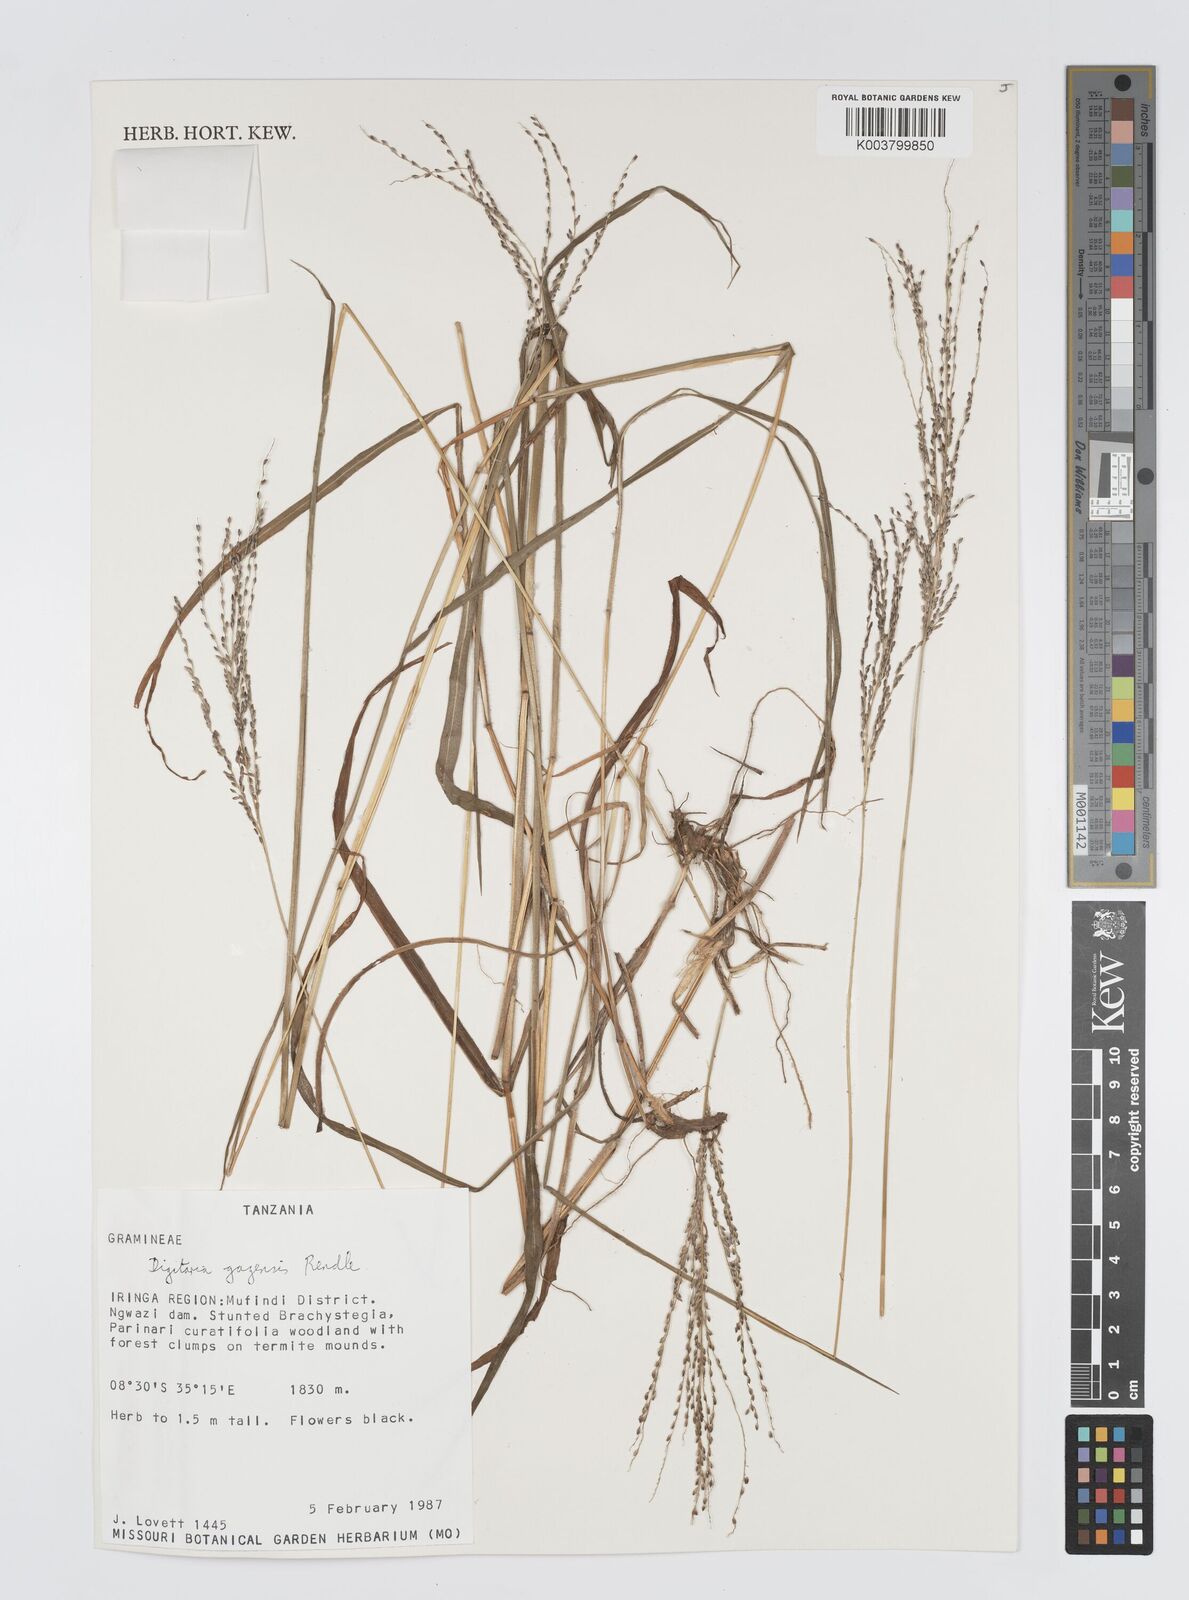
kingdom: Plantae
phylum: Tracheophyta
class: Liliopsida
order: Poales
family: Poaceae
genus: Digitaria
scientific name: Digitaria gazensis
